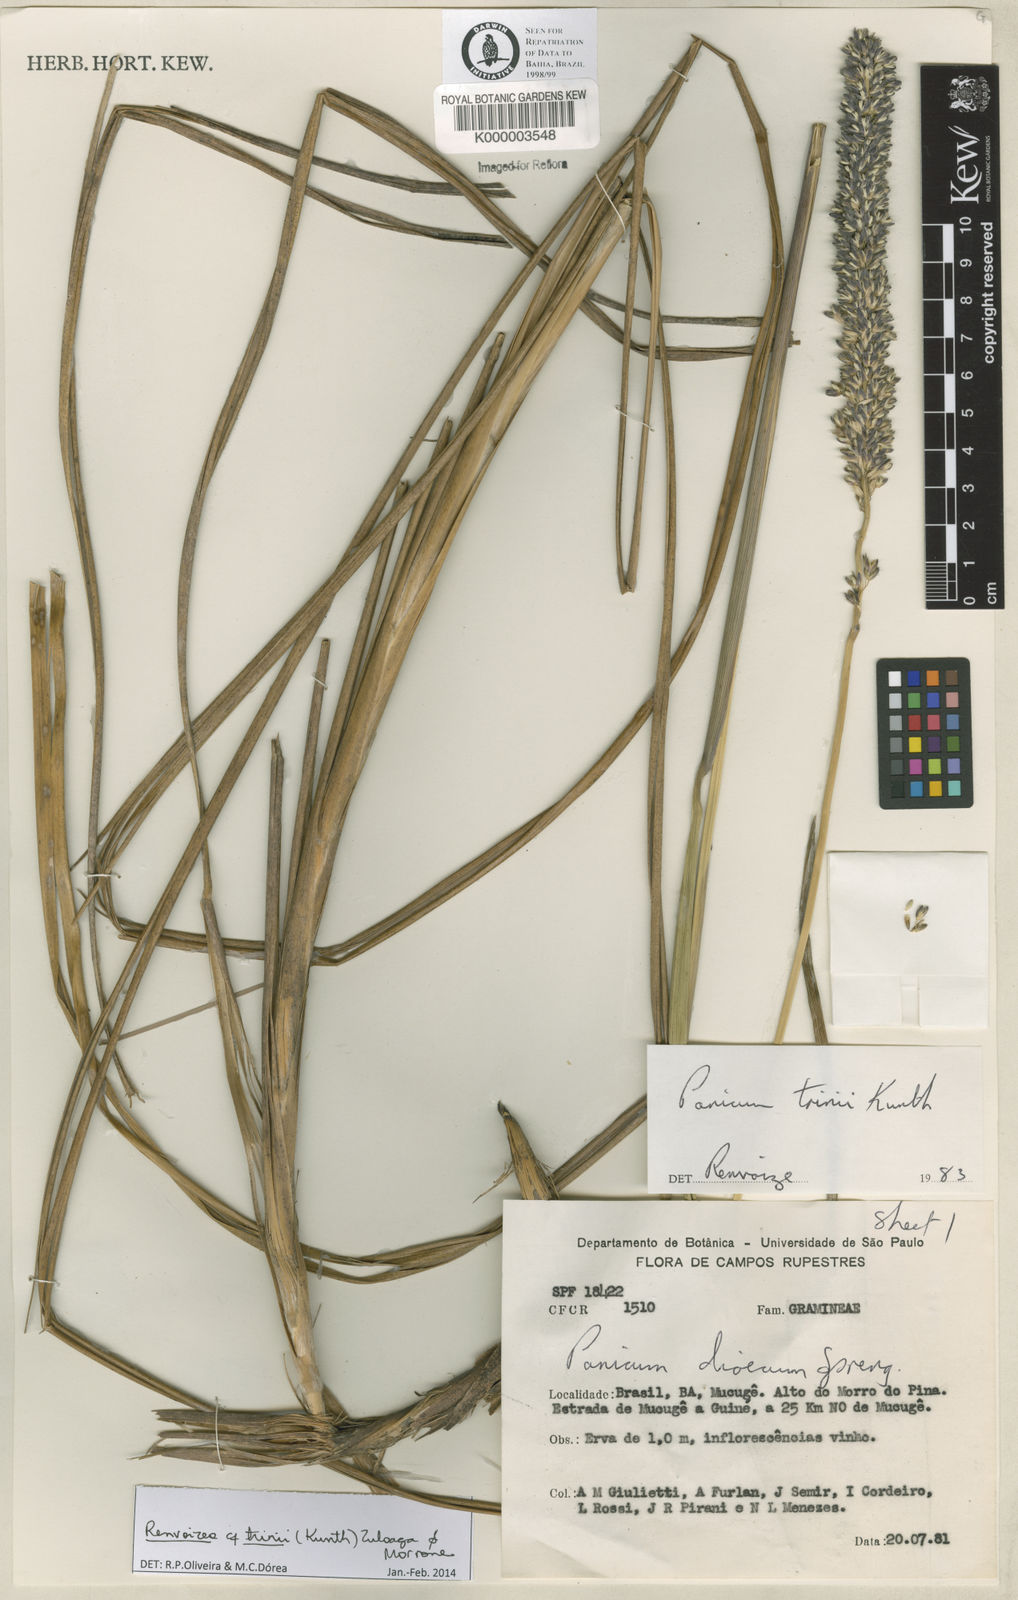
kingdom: Plantae
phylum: Tracheophyta
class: Liliopsida
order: Poales
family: Poaceae
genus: Renvoizea
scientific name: Renvoizea trinii
